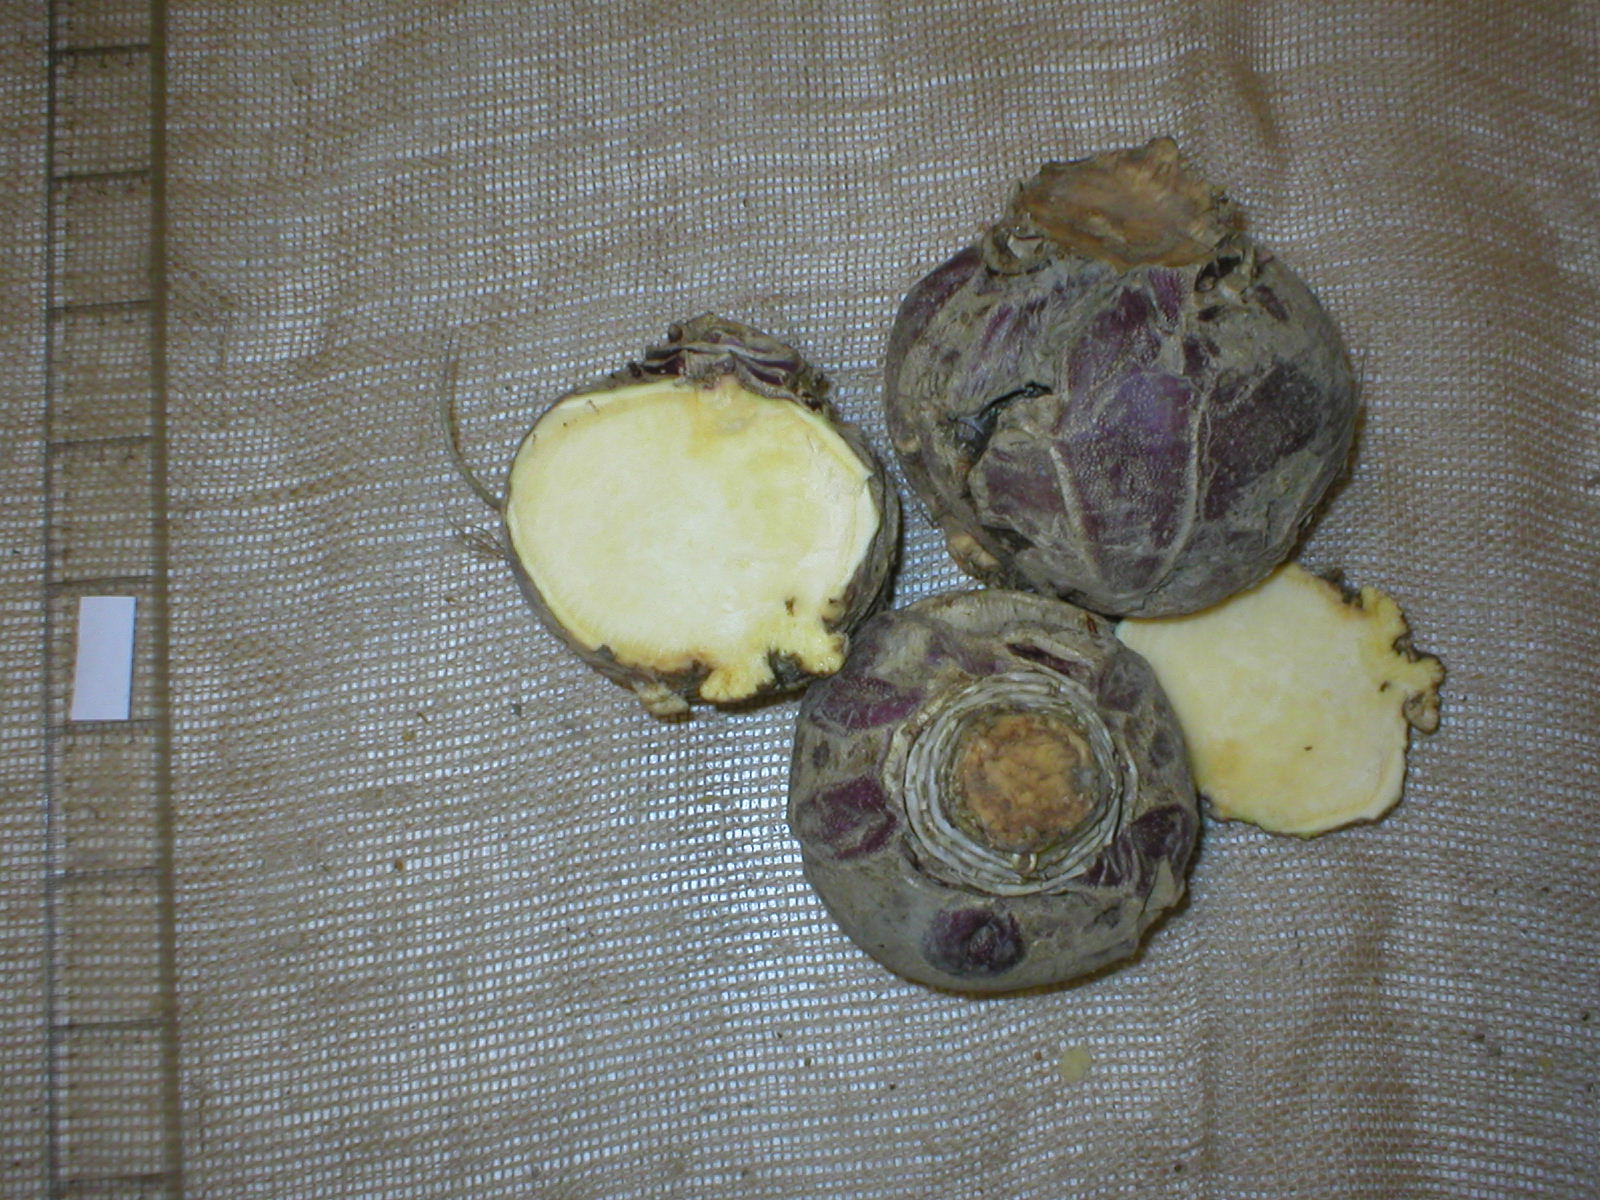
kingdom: Plantae
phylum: Tracheophyta
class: Magnoliopsida
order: Brassicales
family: Brassicaceae
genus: Brassica
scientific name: Brassica napus
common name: Rape
